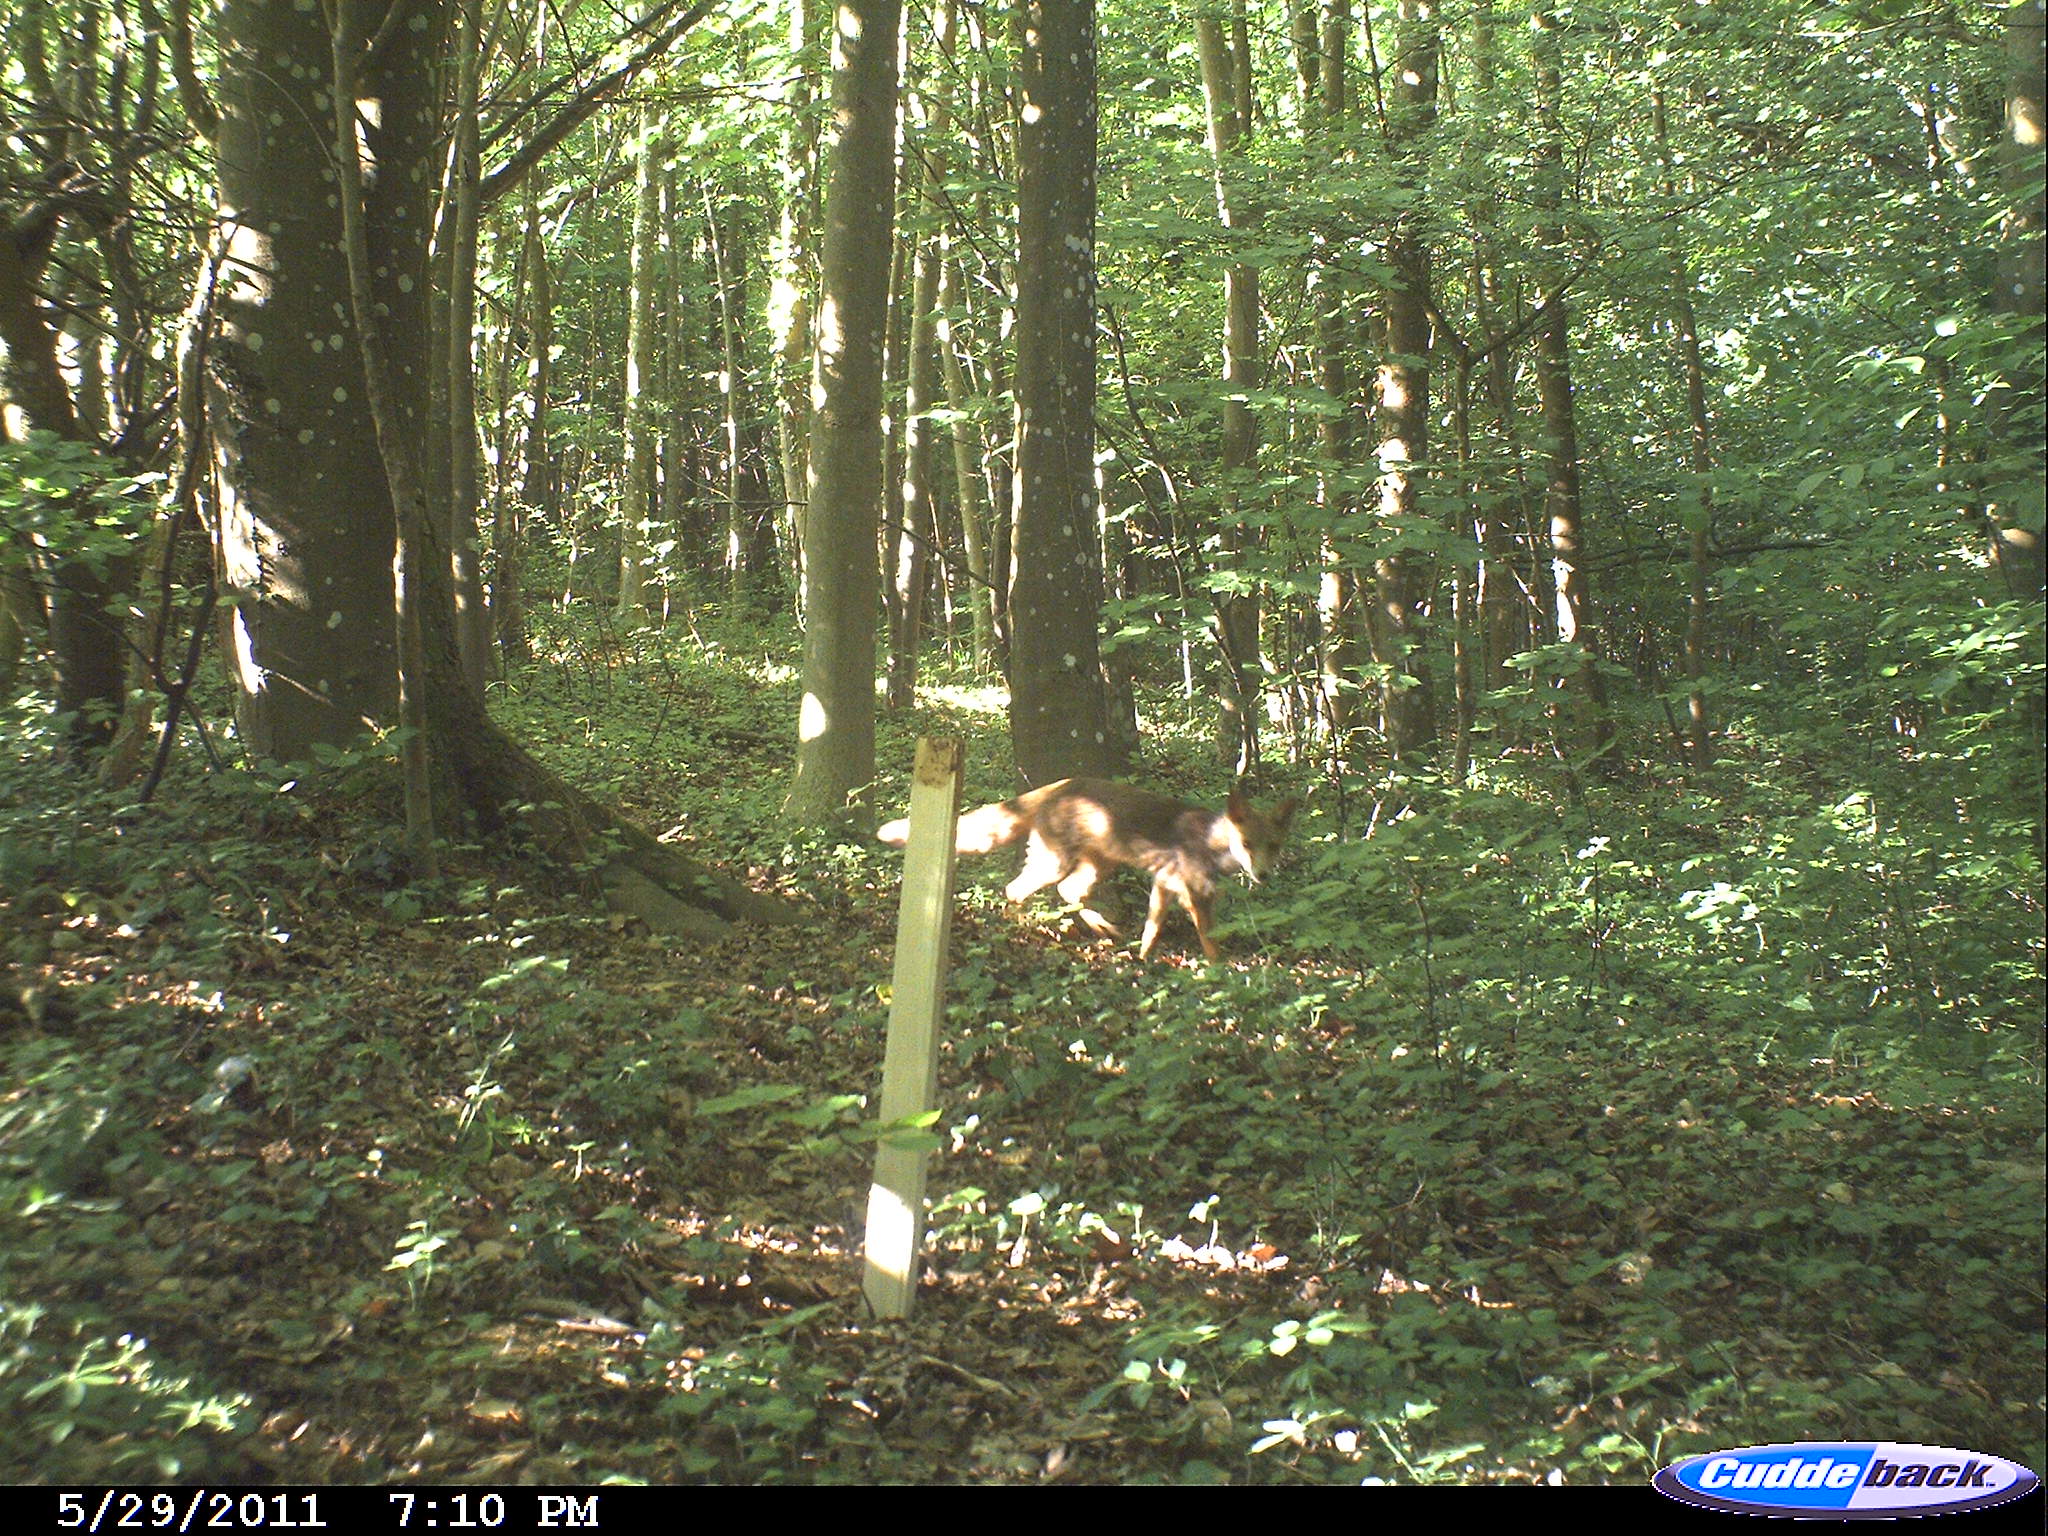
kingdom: Animalia
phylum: Chordata
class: Mammalia
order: Carnivora
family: Canidae
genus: Vulpes
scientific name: Vulpes vulpes
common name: Red fox
